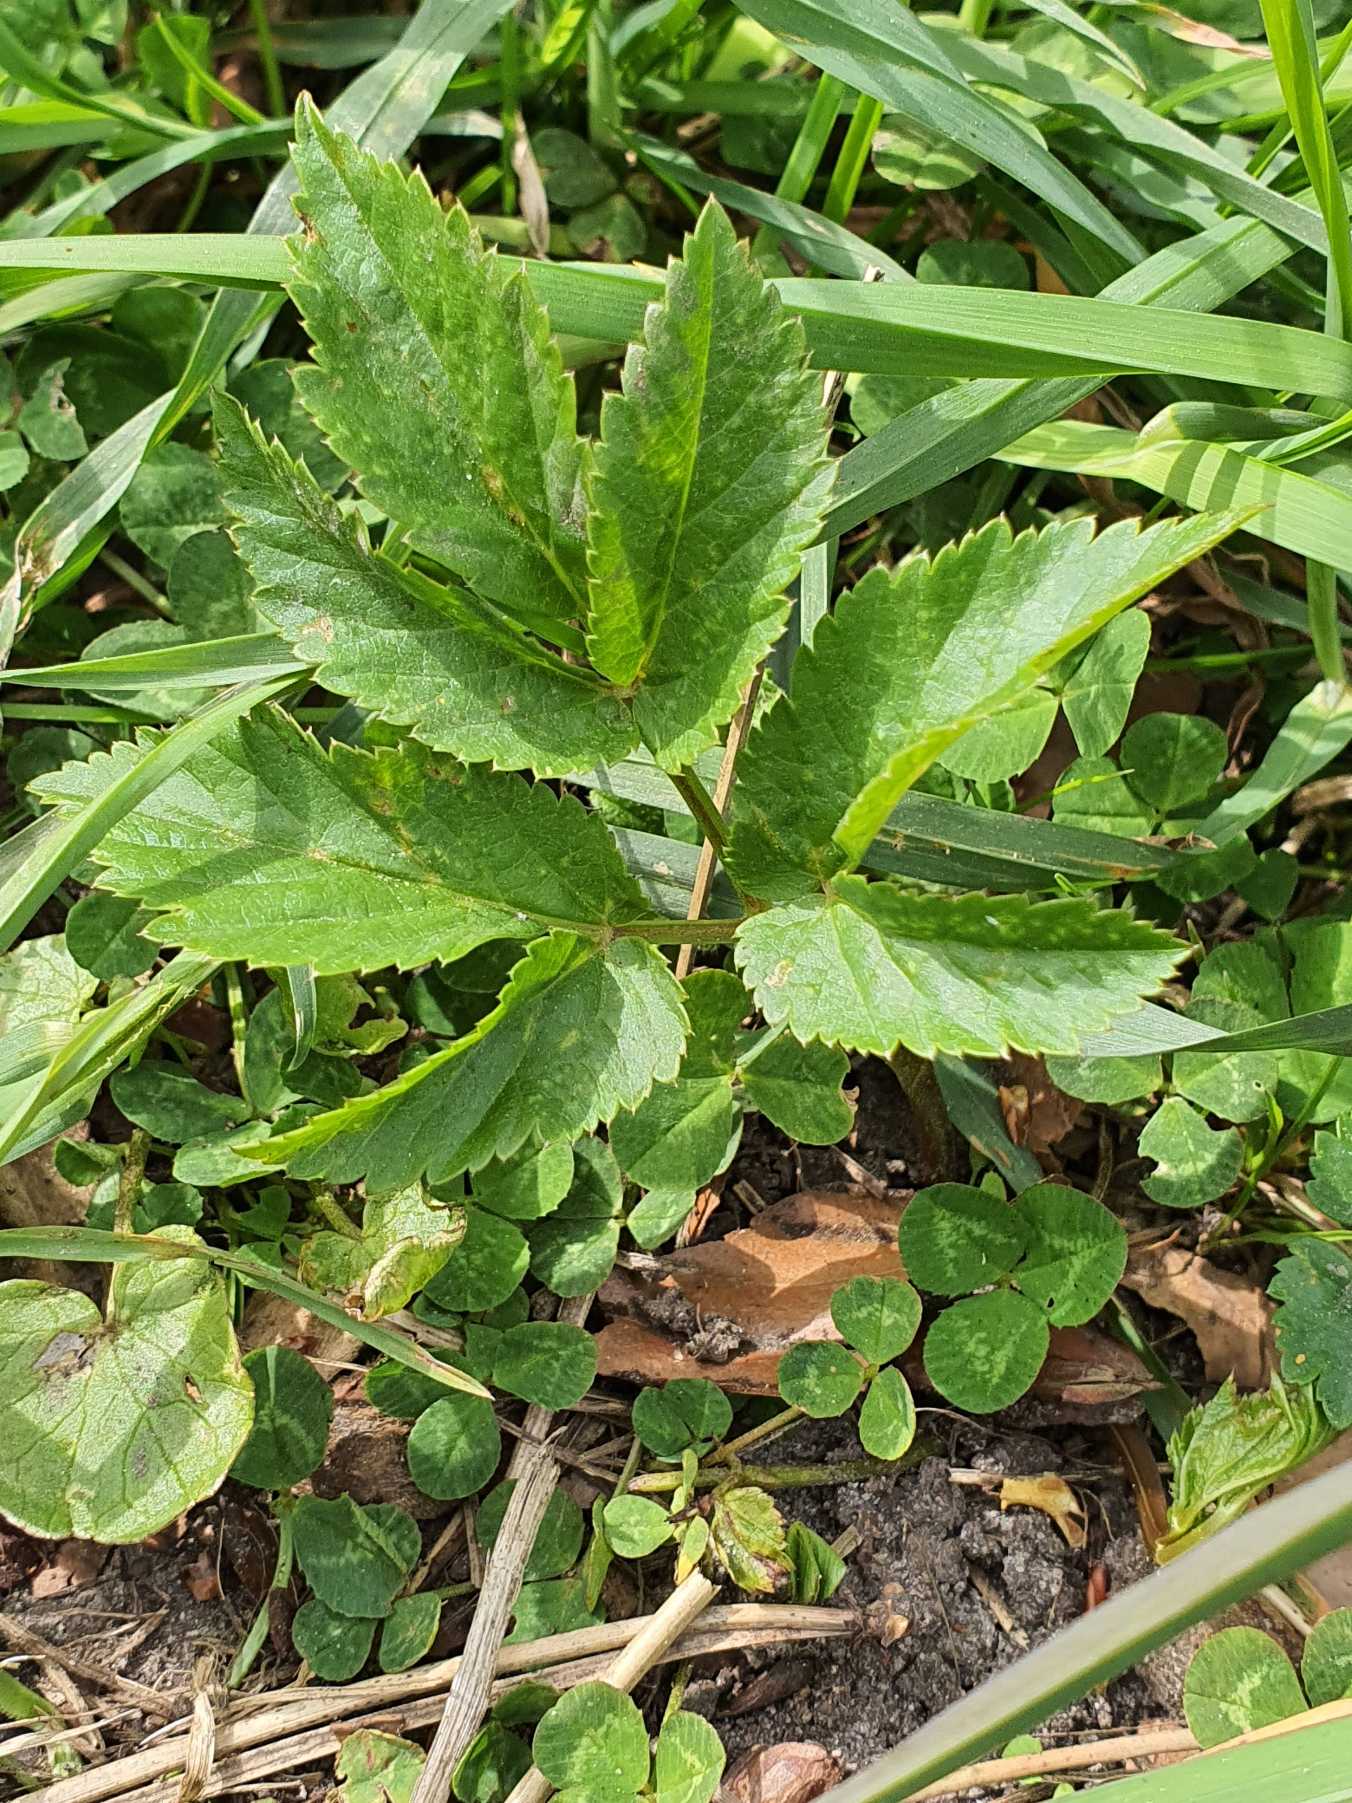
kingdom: Plantae
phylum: Tracheophyta
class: Magnoliopsida
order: Apiales
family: Apiaceae
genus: Aegopodium
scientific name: Aegopodium podagraria
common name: Skvalderkål
